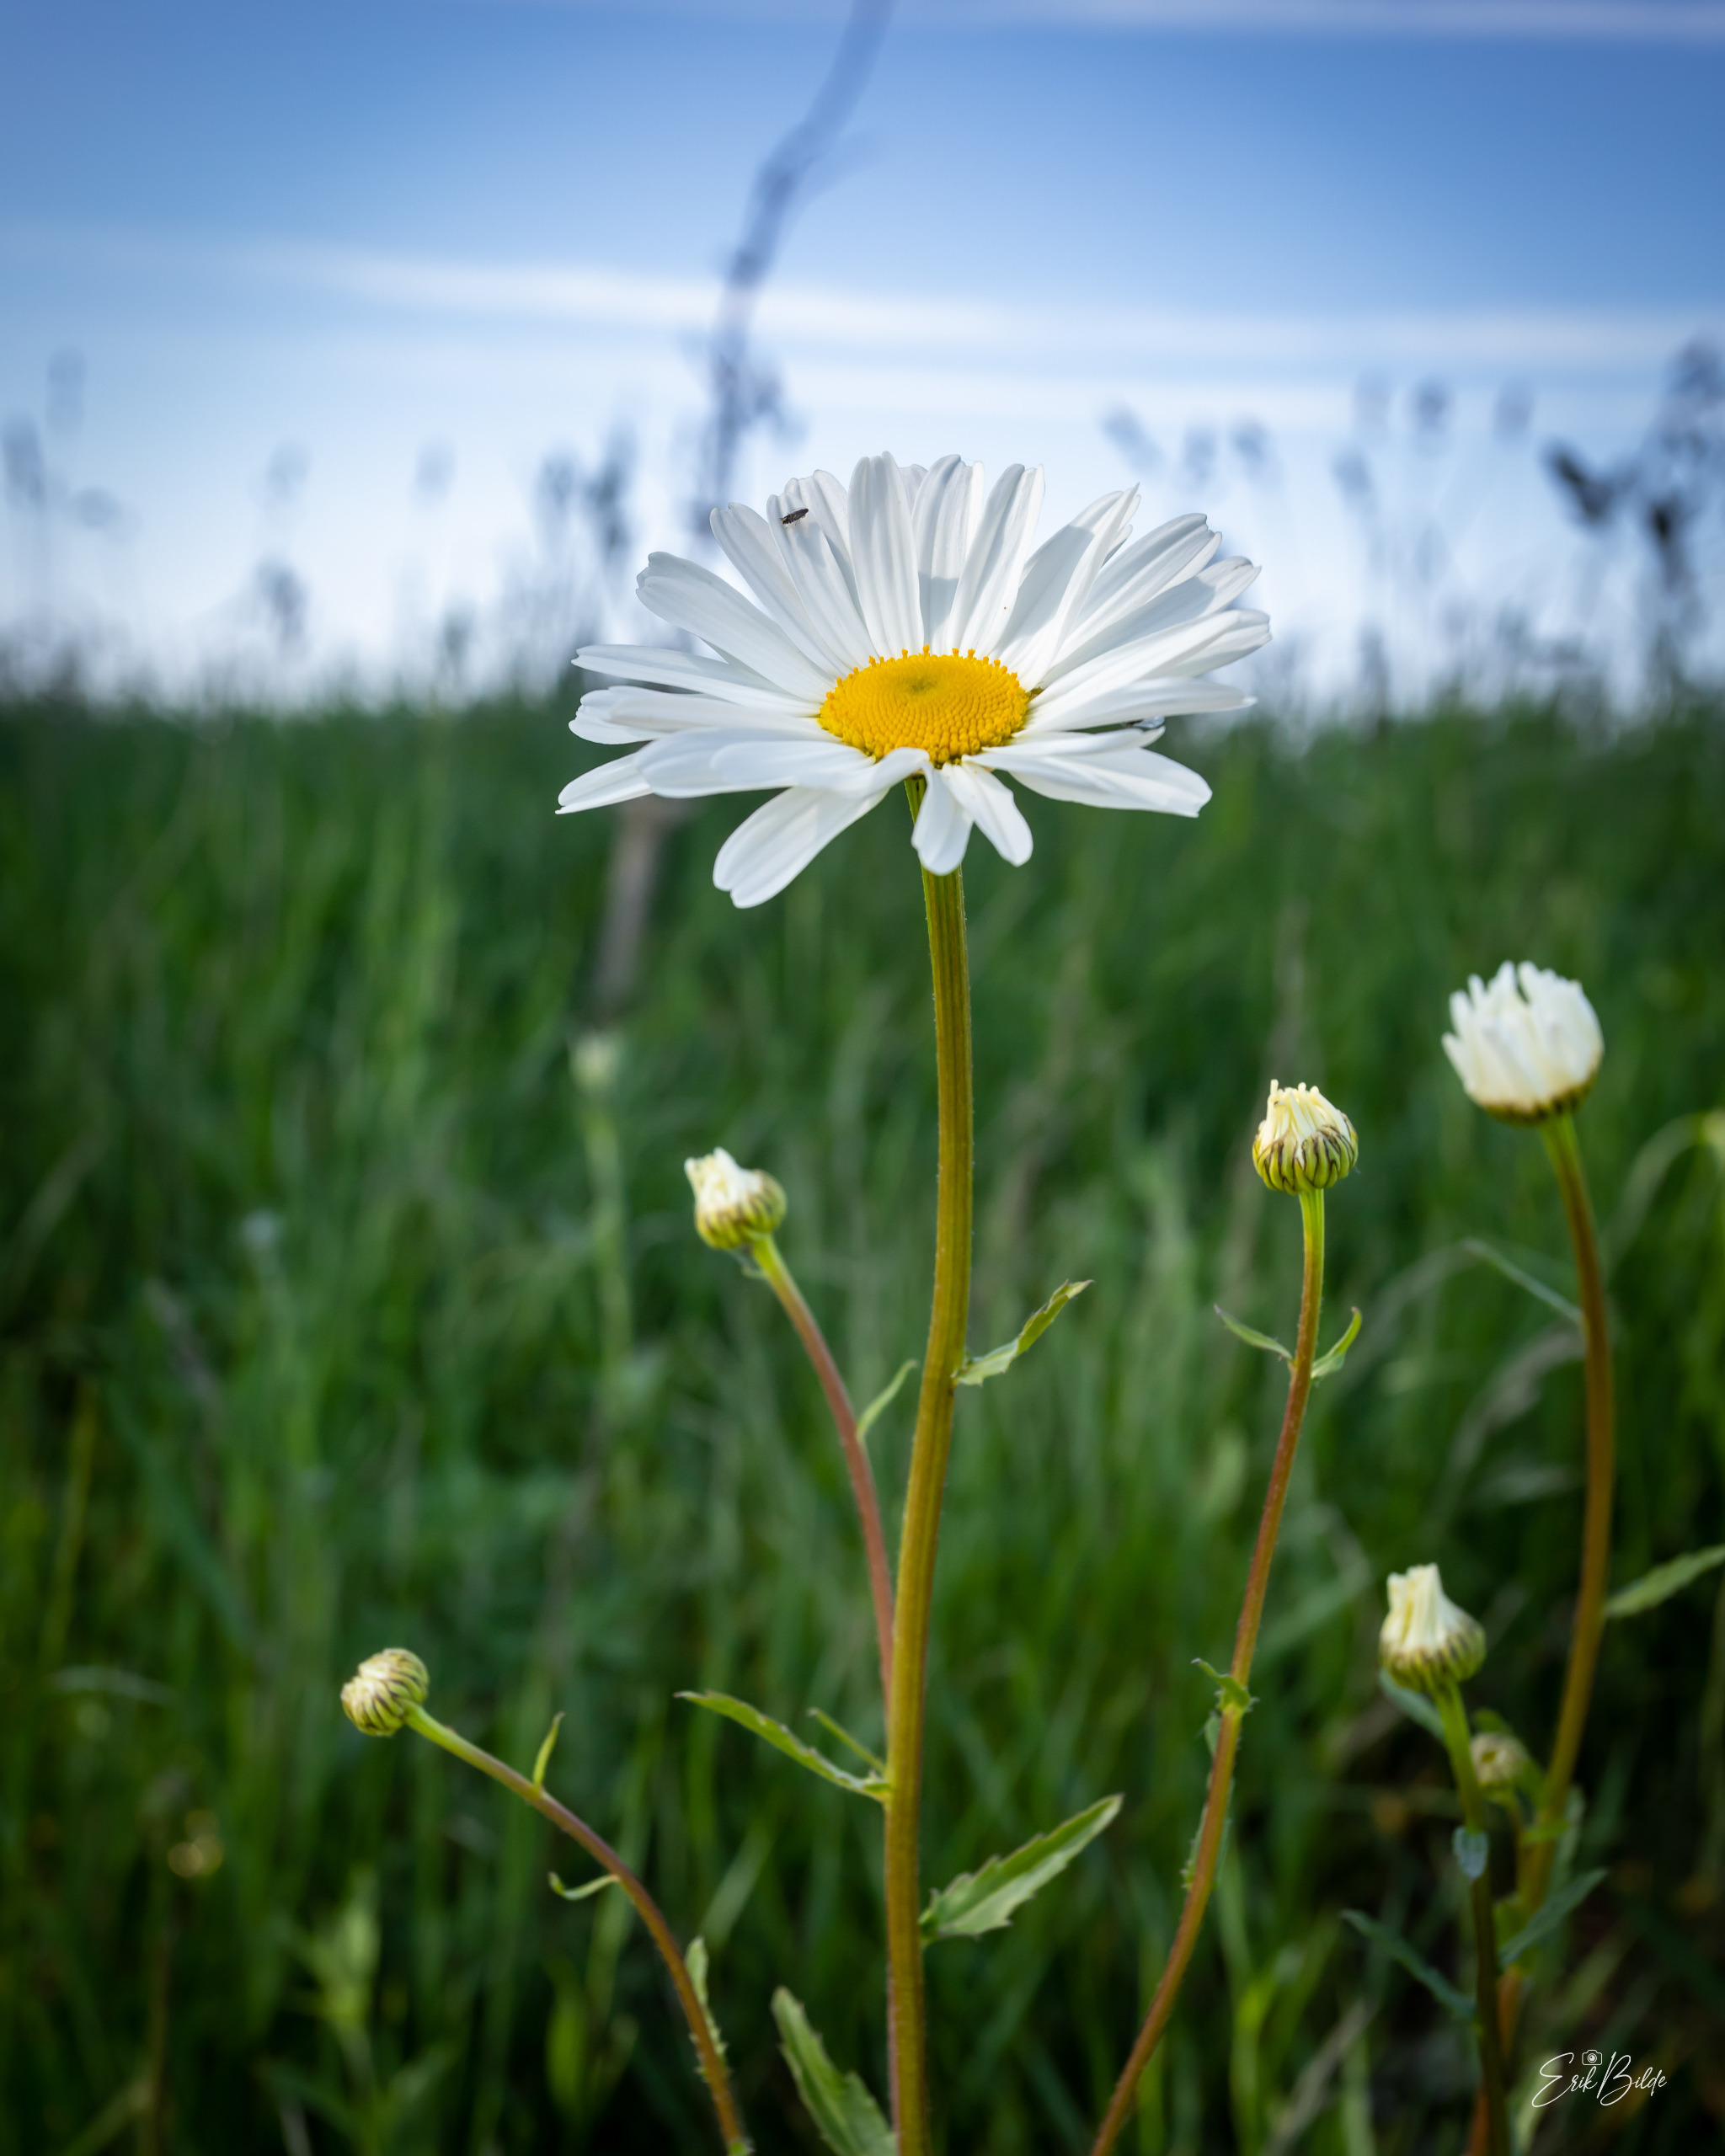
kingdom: Plantae
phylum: Tracheophyta
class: Magnoliopsida
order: Asterales
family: Asteraceae
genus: Leucanthemum
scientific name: Leucanthemum vulgare
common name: Hvid okseøje
